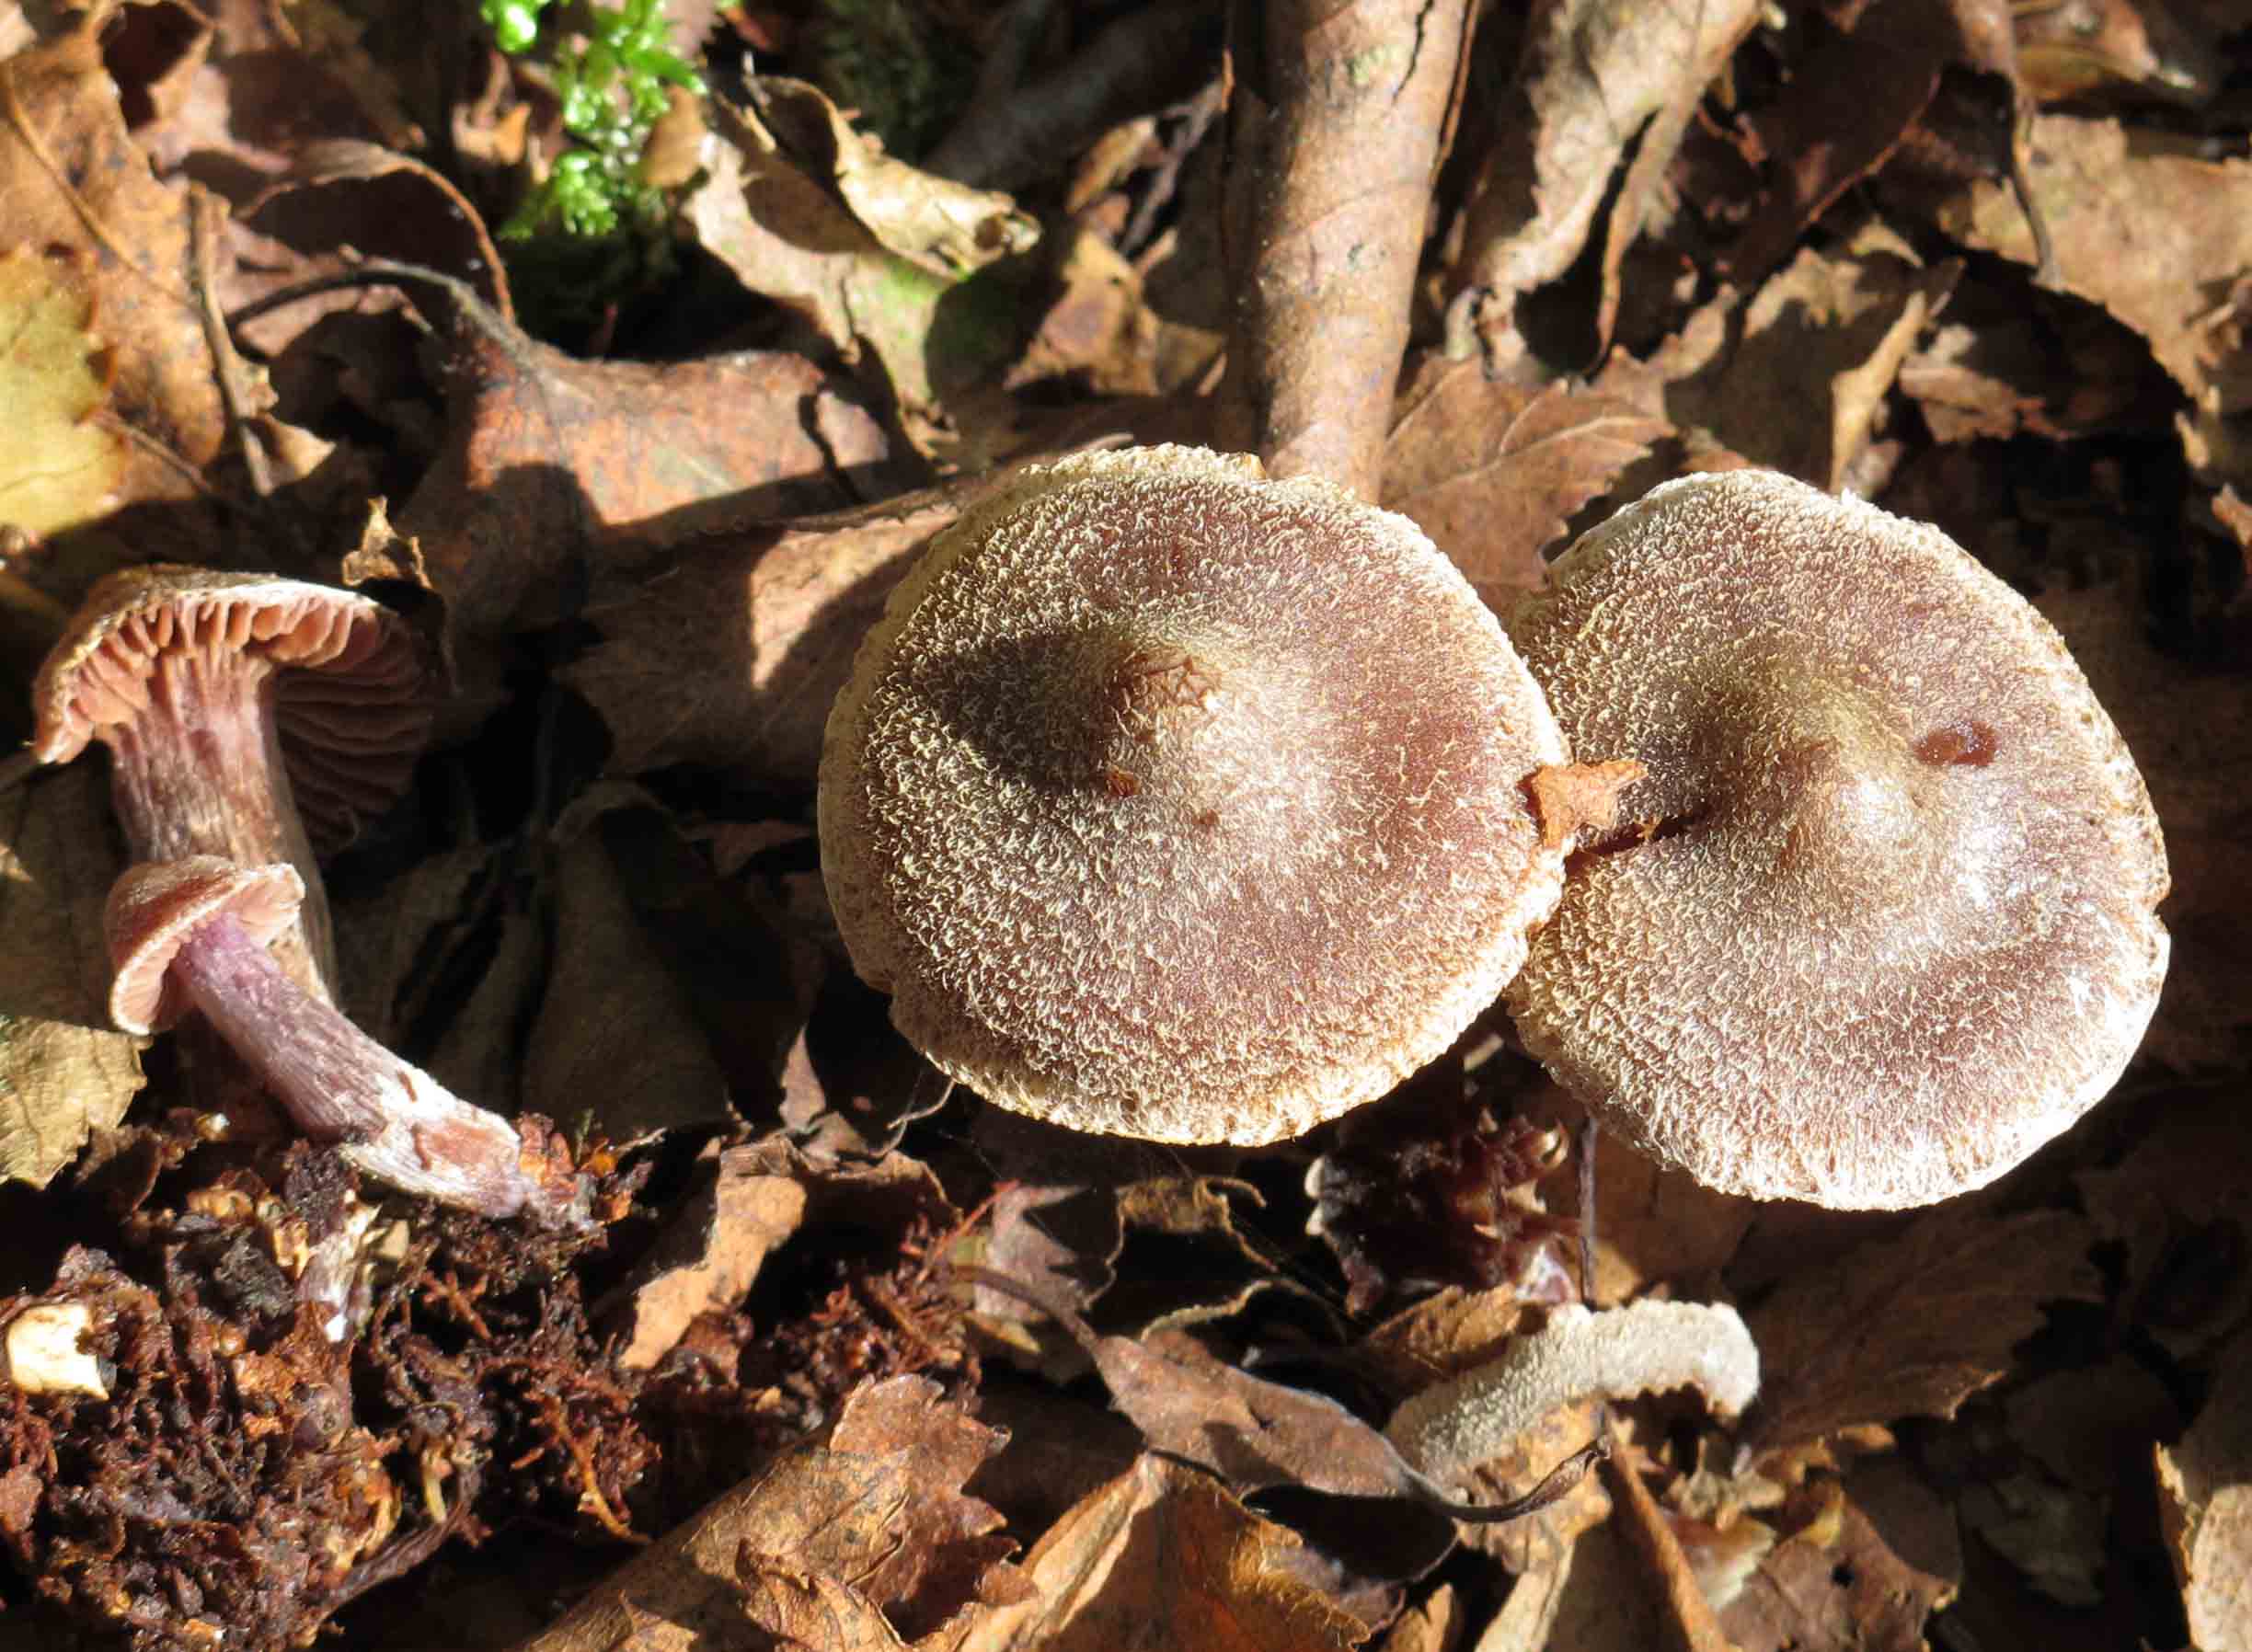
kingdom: Fungi
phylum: Basidiomycota
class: Agaricomycetes
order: Agaricales
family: Cortinariaceae
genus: Cortinarius
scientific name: Cortinarius
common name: pelargonie-slørhat
